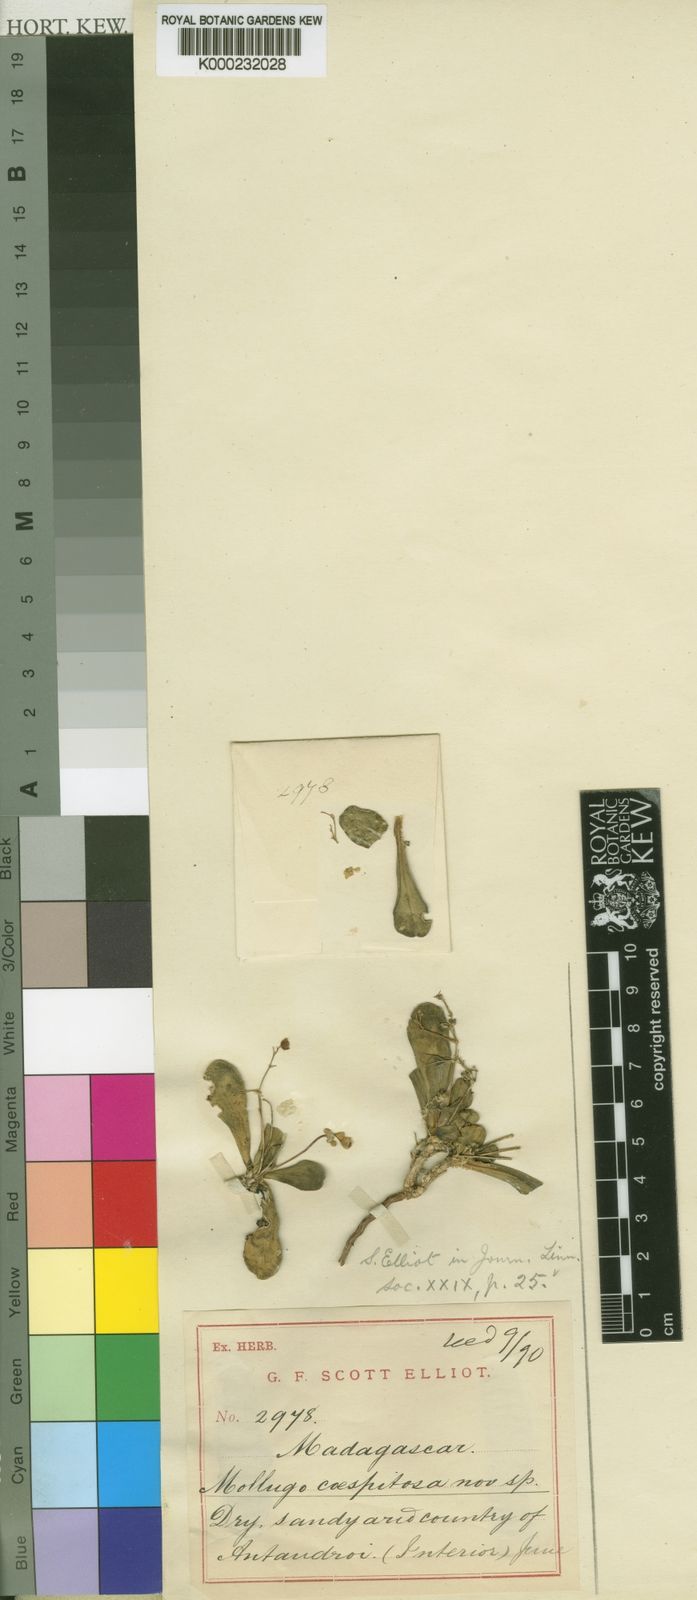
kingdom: Plantae
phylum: Tracheophyta
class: Magnoliopsida
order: Caryophyllales
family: Molluginaceae
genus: Paramollugo
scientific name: Paramollugo nudicaulis
